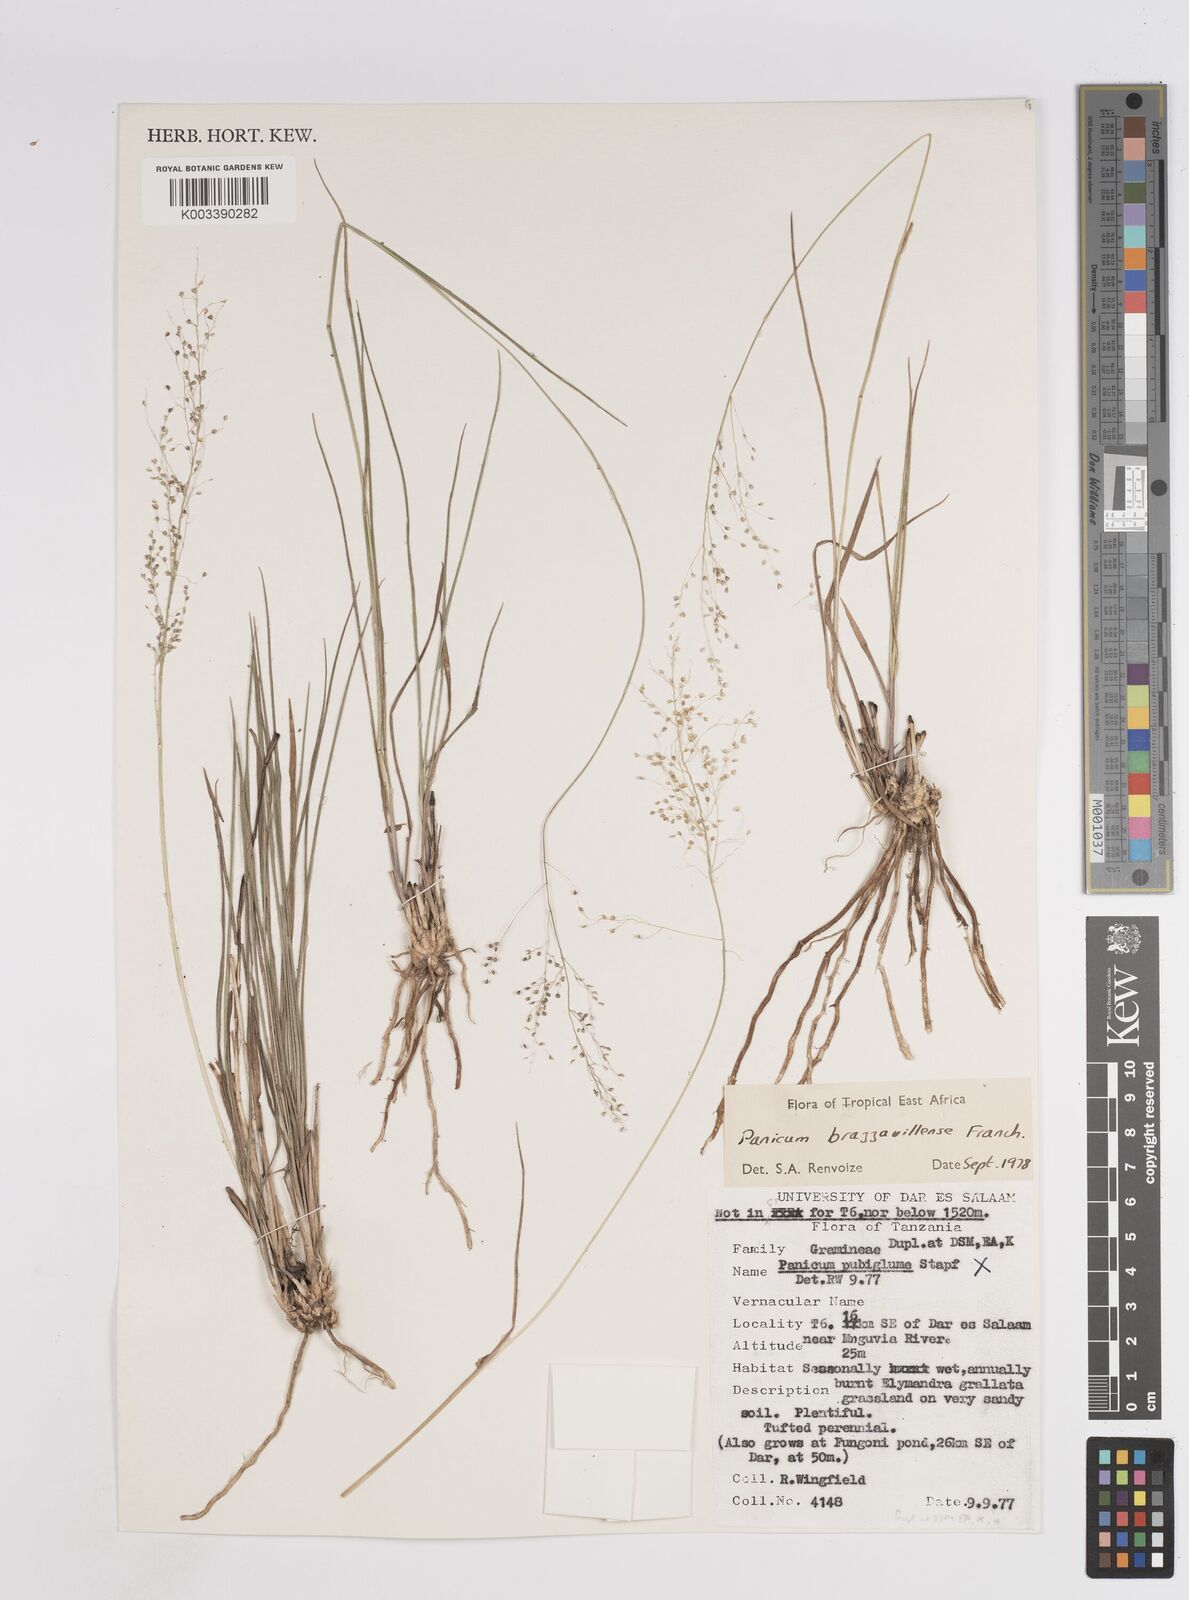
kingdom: Plantae
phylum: Tracheophyta
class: Liliopsida
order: Poales
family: Poaceae
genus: Trichanthecium
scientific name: Trichanthecium brazzavillense
